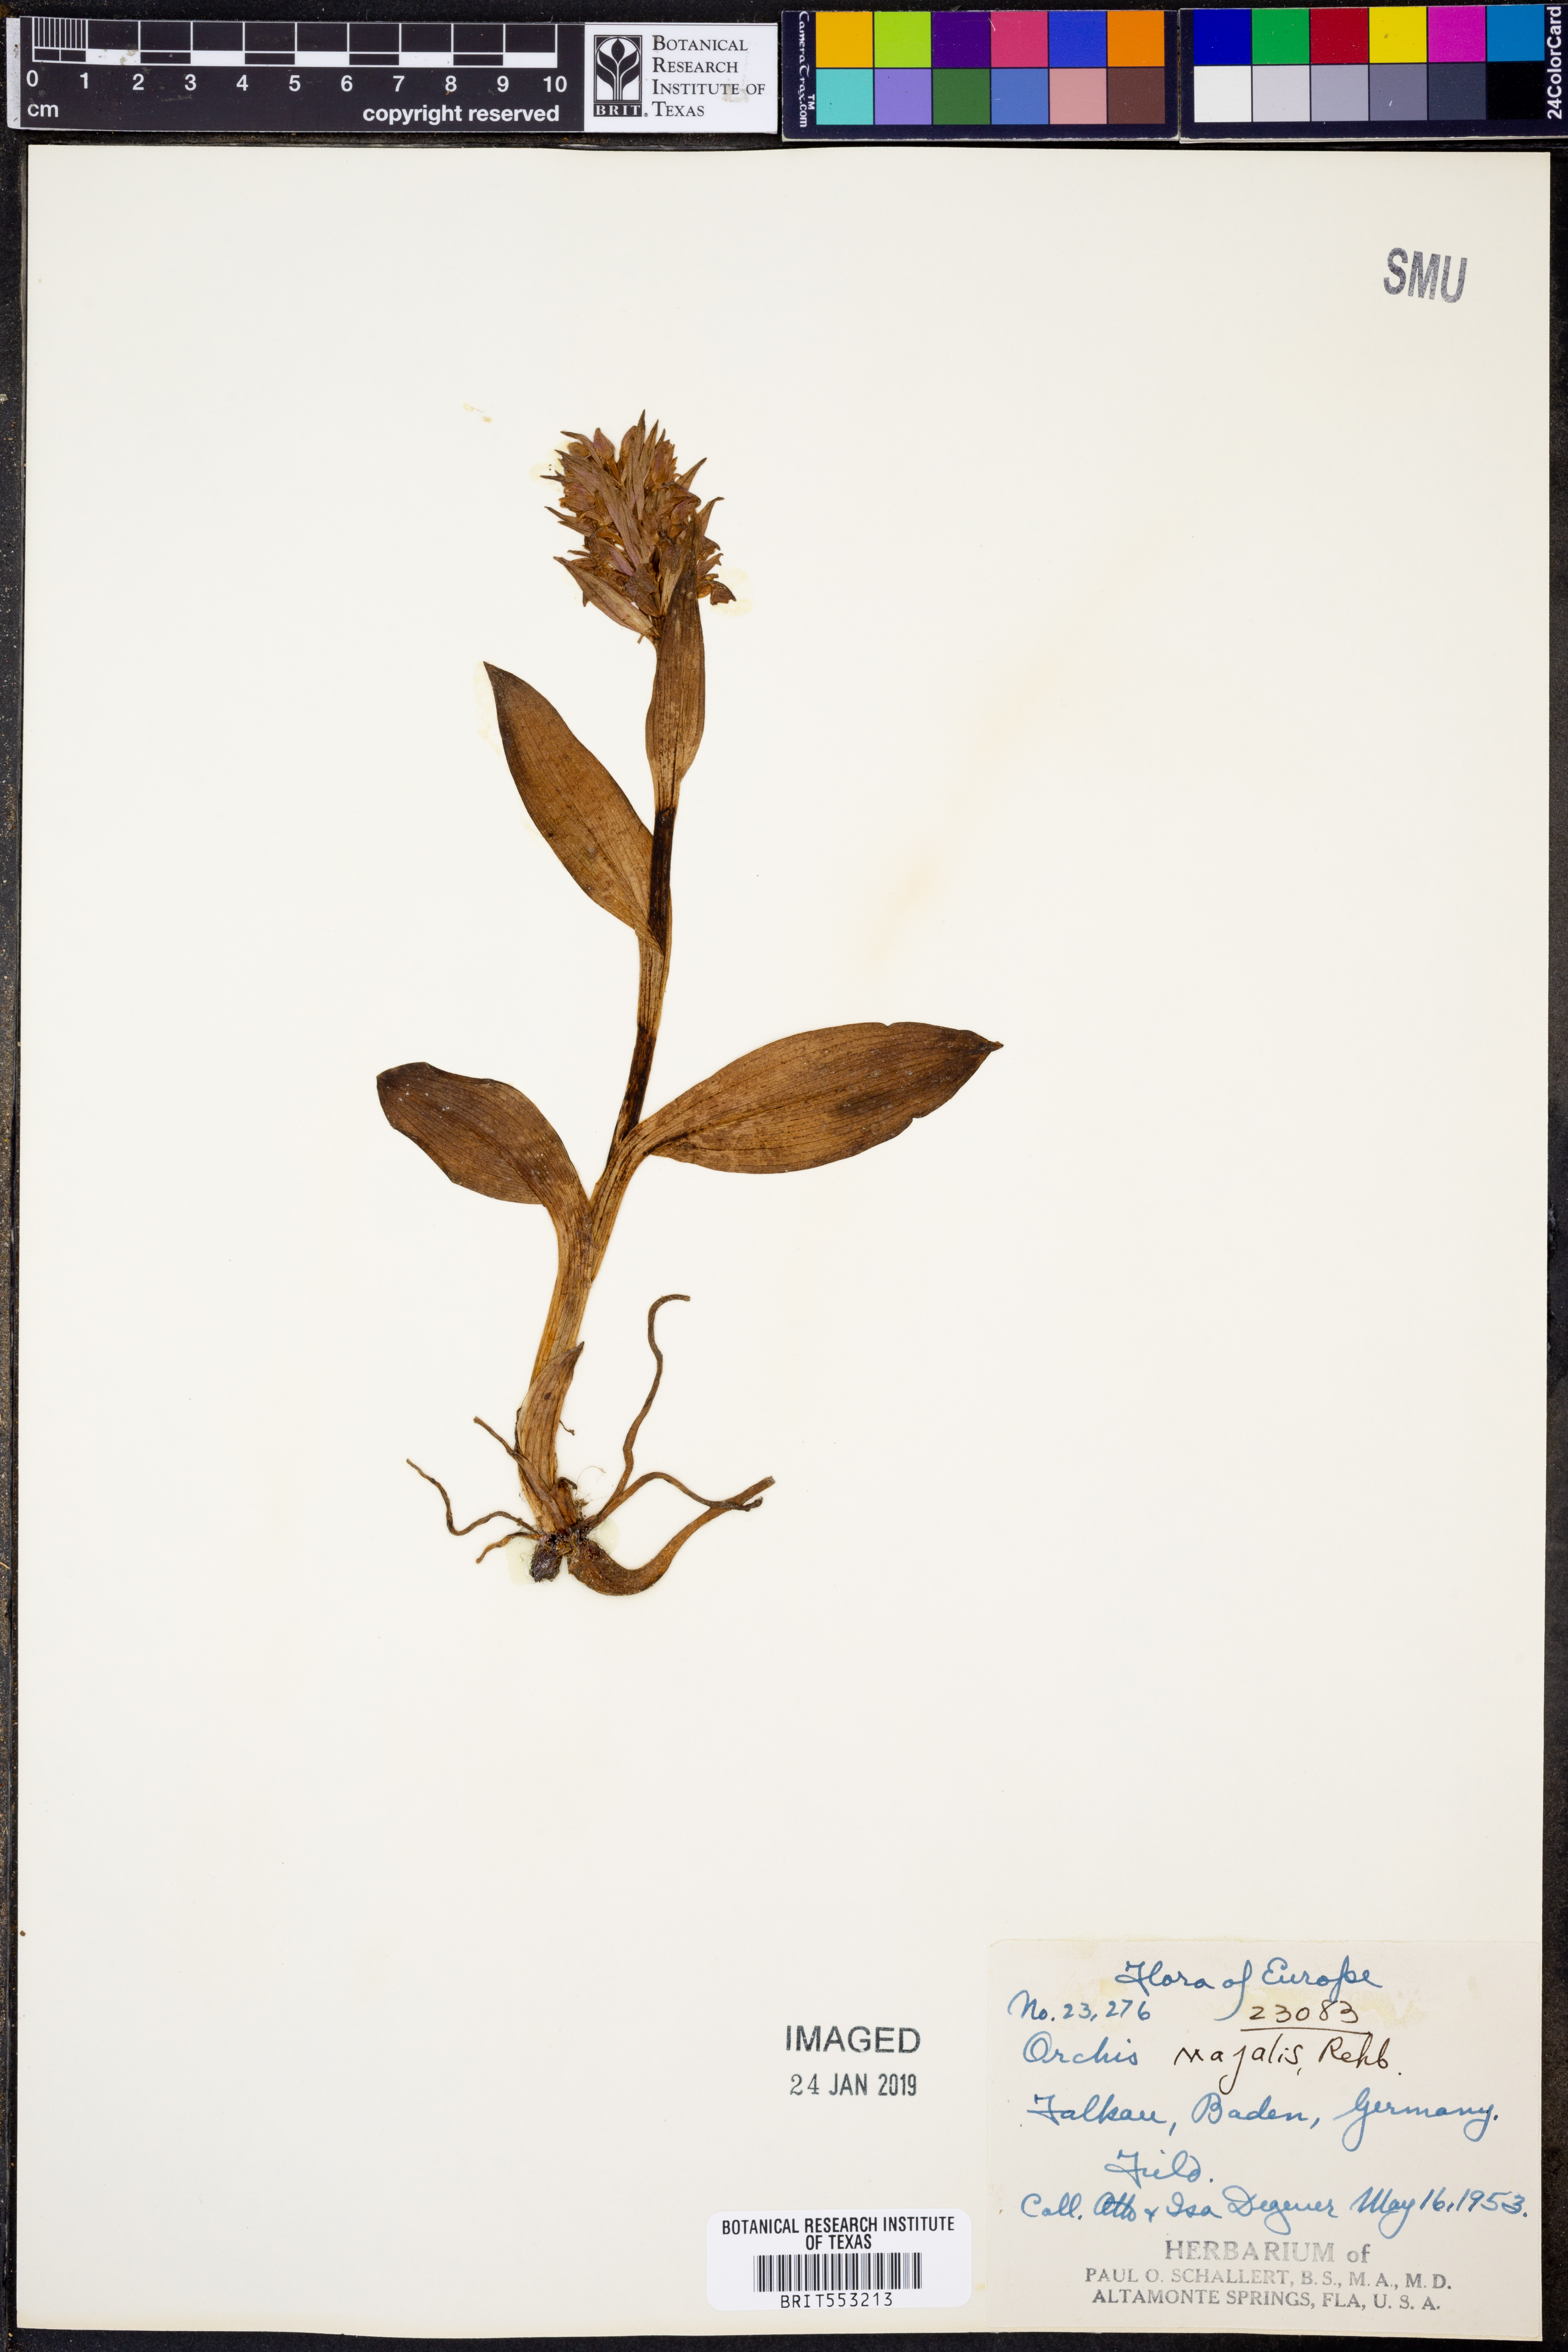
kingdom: Plantae
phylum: Tracheophyta
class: Liliopsida
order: Asparagales
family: Orchidaceae
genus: Dactylorhiza
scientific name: Dactylorhiza majalis
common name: Marsh orchid
